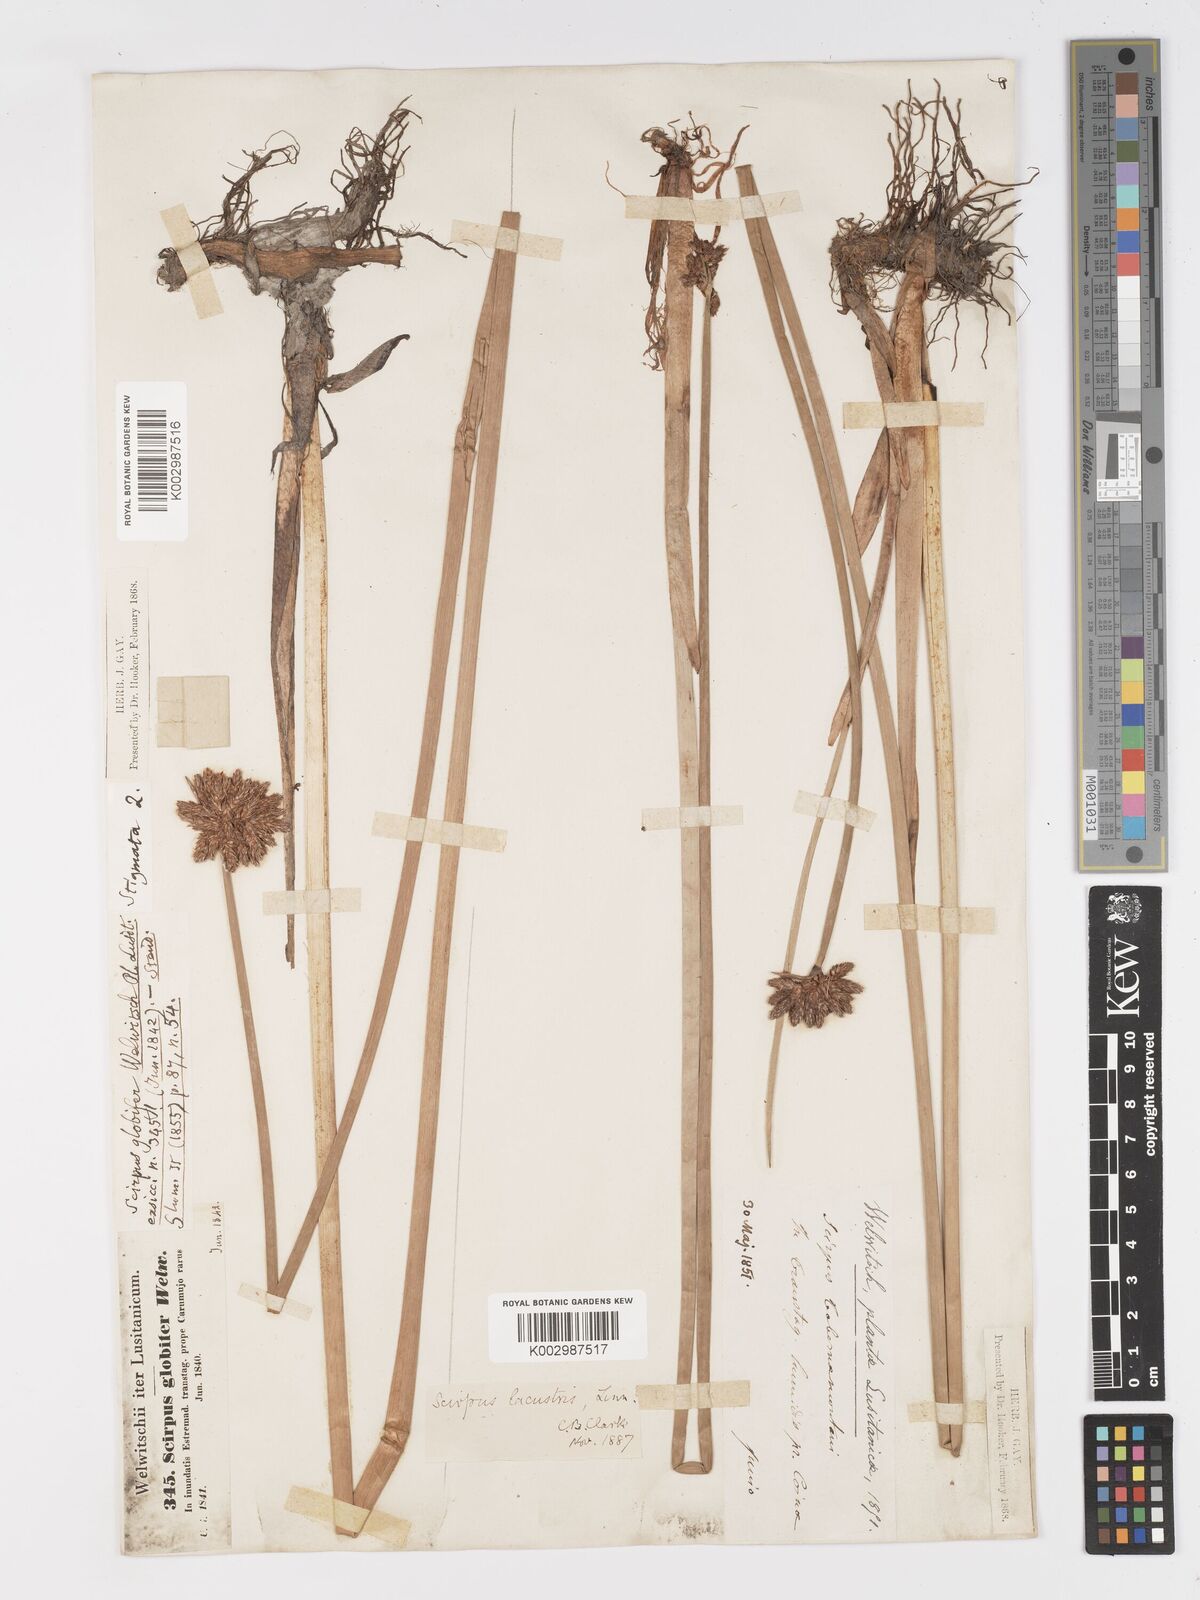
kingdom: Plantae
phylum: Tracheophyta
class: Liliopsida
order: Poales
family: Cyperaceae
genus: Schoenoplectus
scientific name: Schoenoplectus lacustris
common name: Common club-rush
